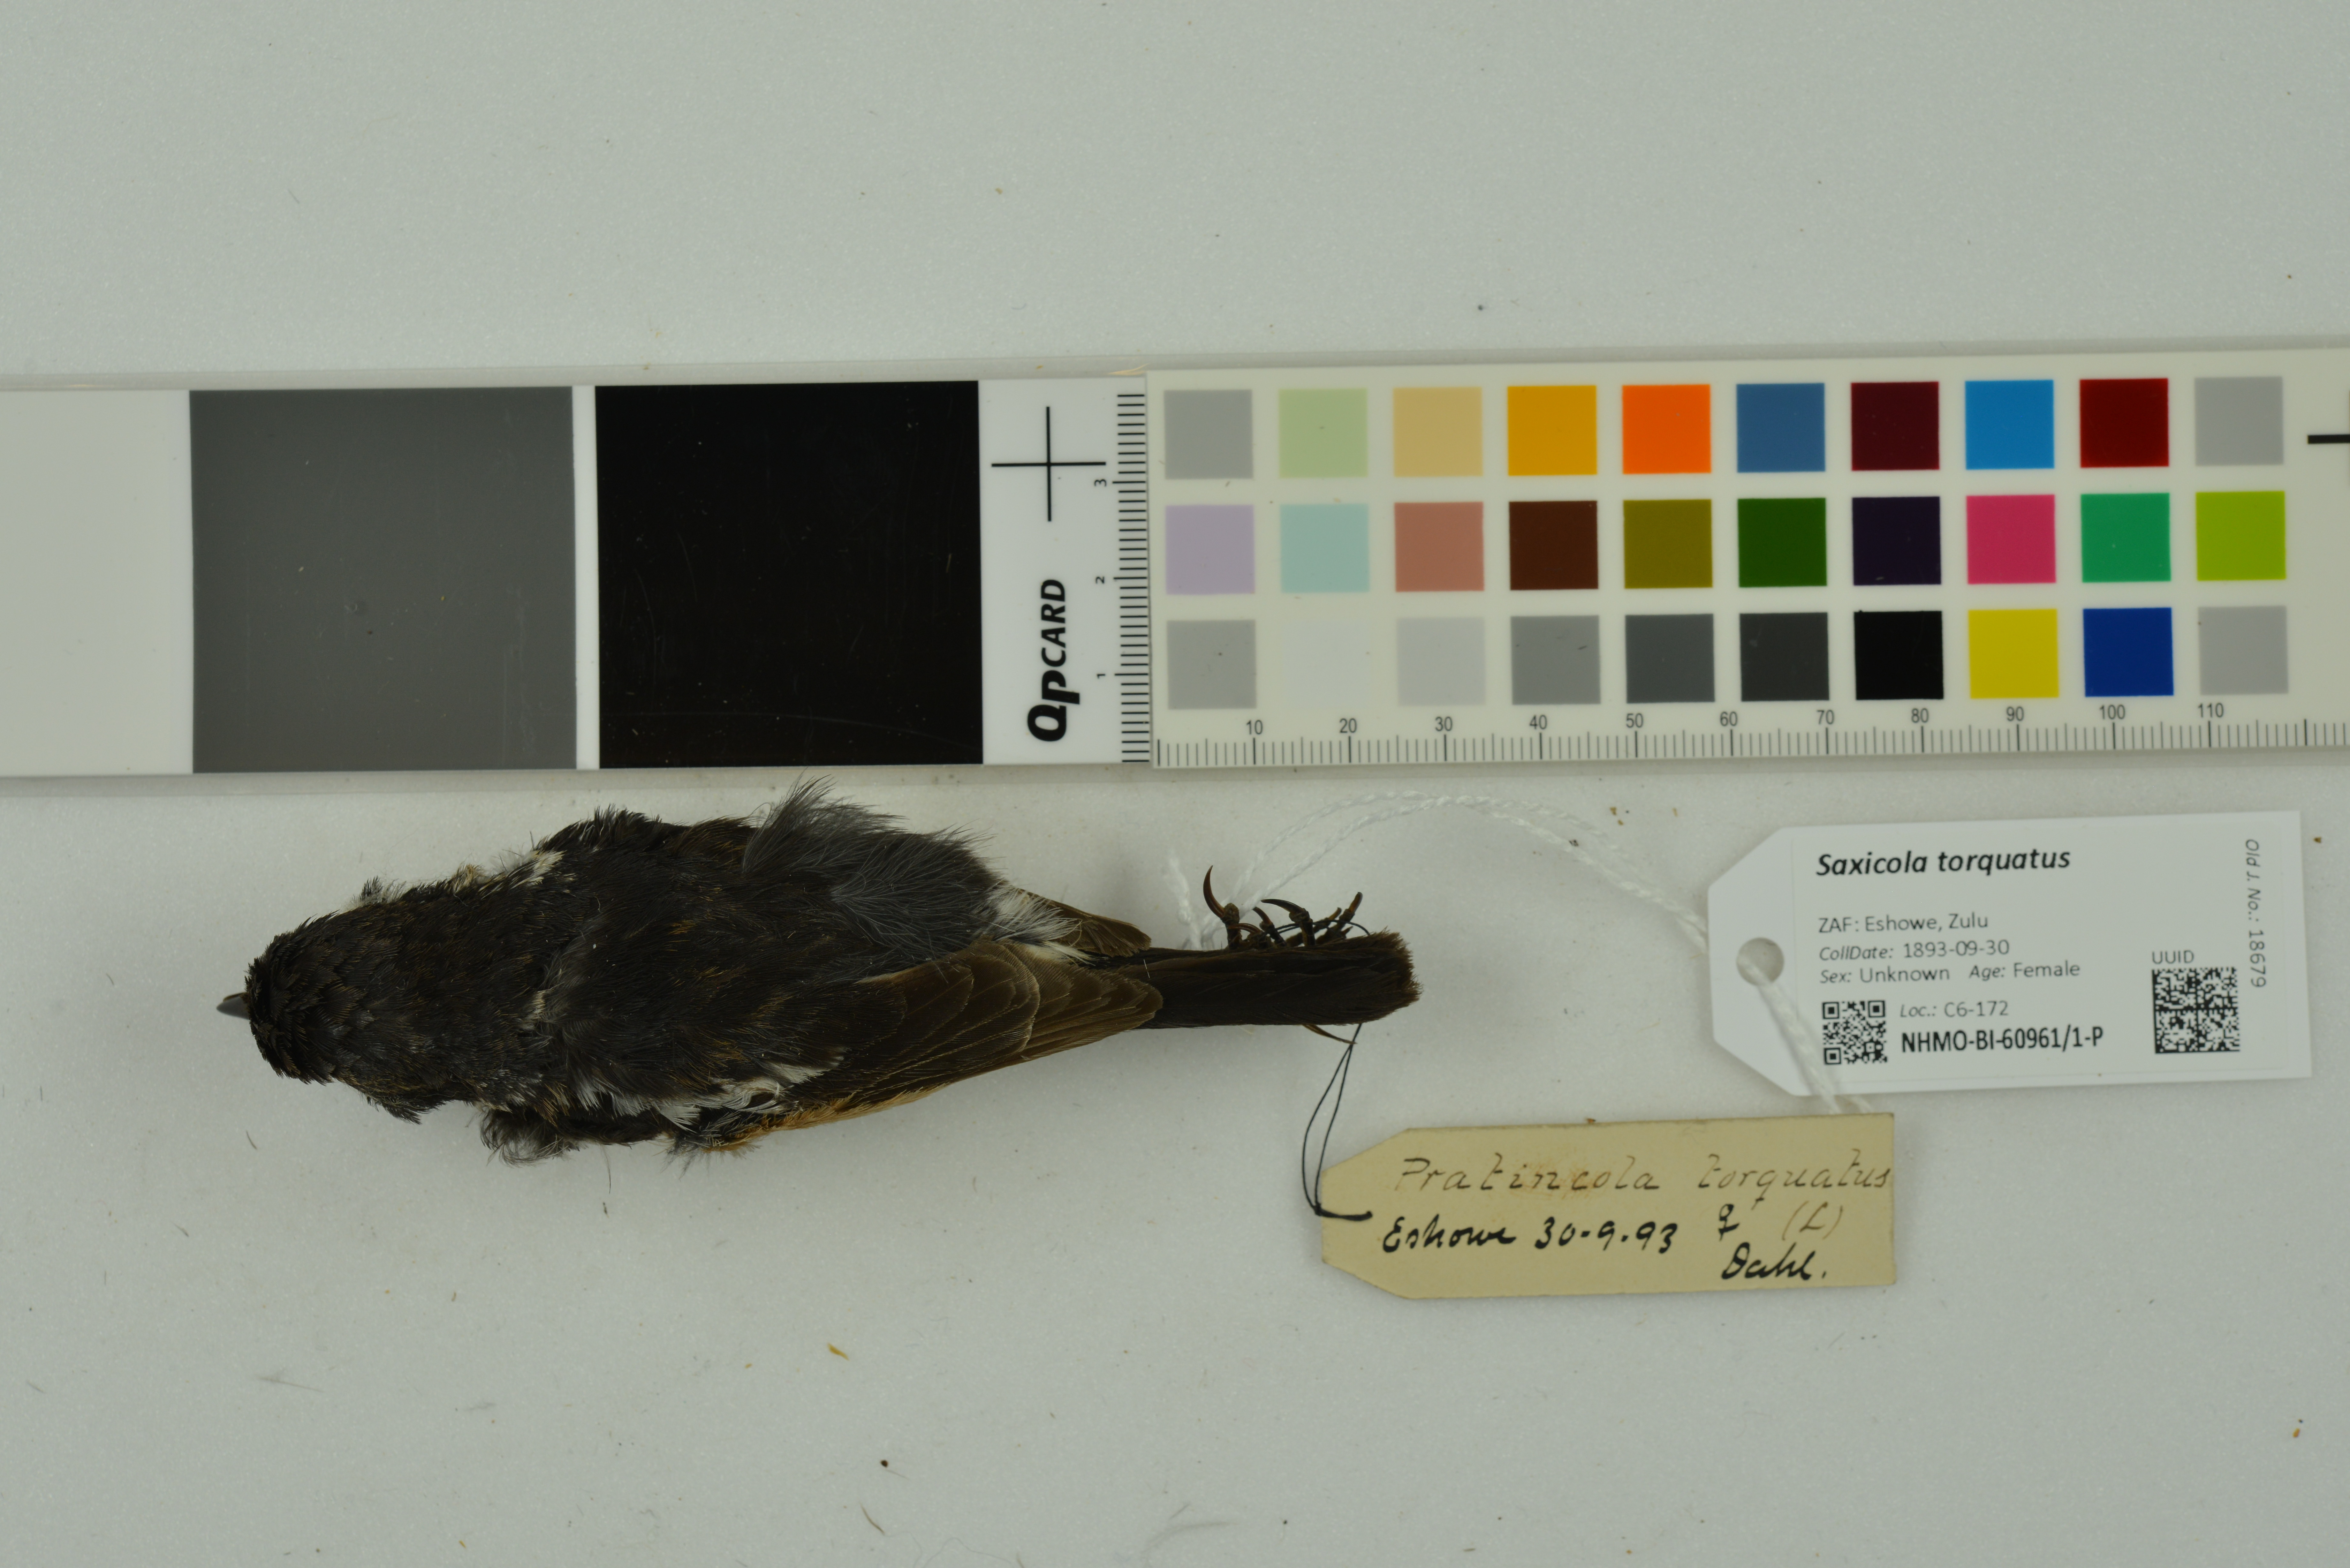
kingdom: Animalia
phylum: Chordata
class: Aves
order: Passeriformes
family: Muscicapidae
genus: Saxicola
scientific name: Saxicola torquatus
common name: African stonechat
